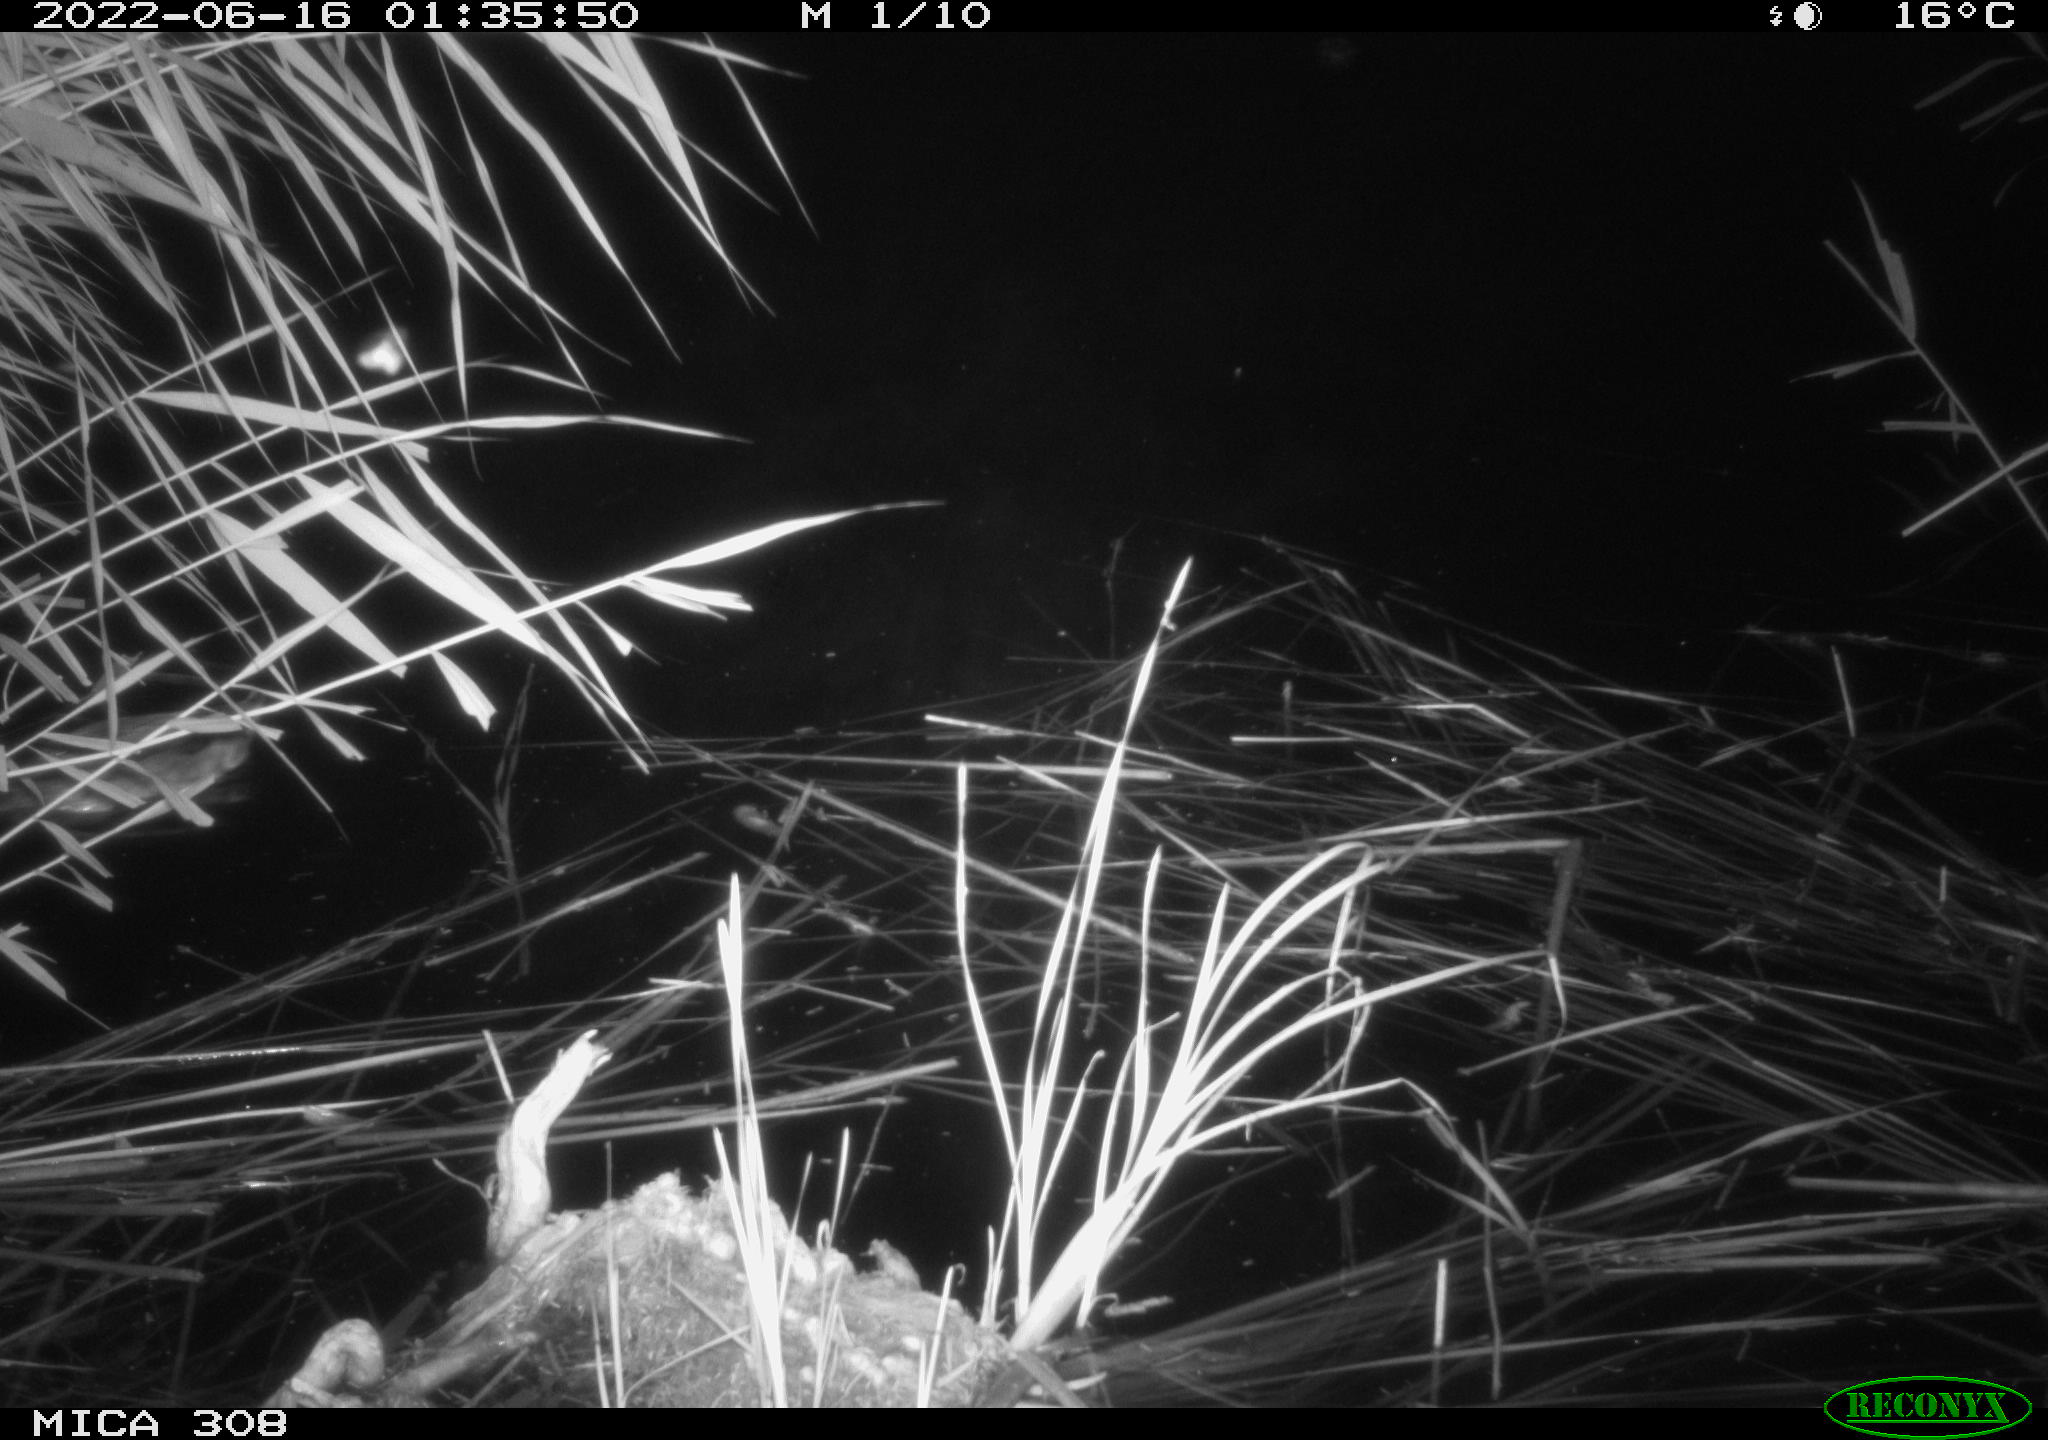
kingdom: Animalia
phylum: Chordata
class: Aves
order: Anseriformes
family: Anatidae
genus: Anas
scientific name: Anas platyrhynchos
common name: Mallard
